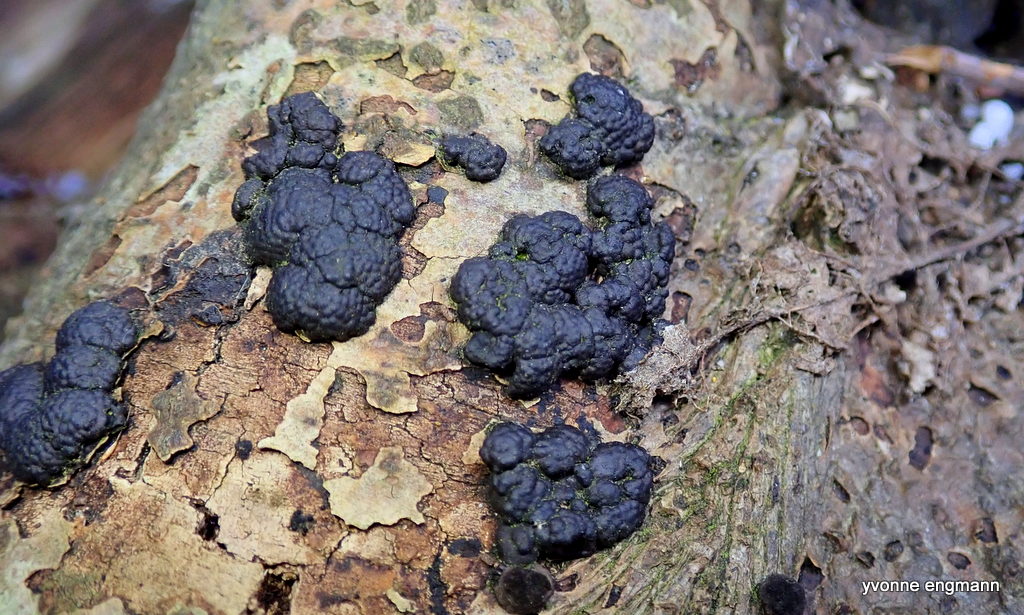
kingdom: Fungi
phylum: Ascomycota
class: Sordariomycetes
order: Xylariales
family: Hypoxylaceae
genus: Jackrogersella
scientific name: Jackrogersella cohaerens
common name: sammenflydende kulbær
